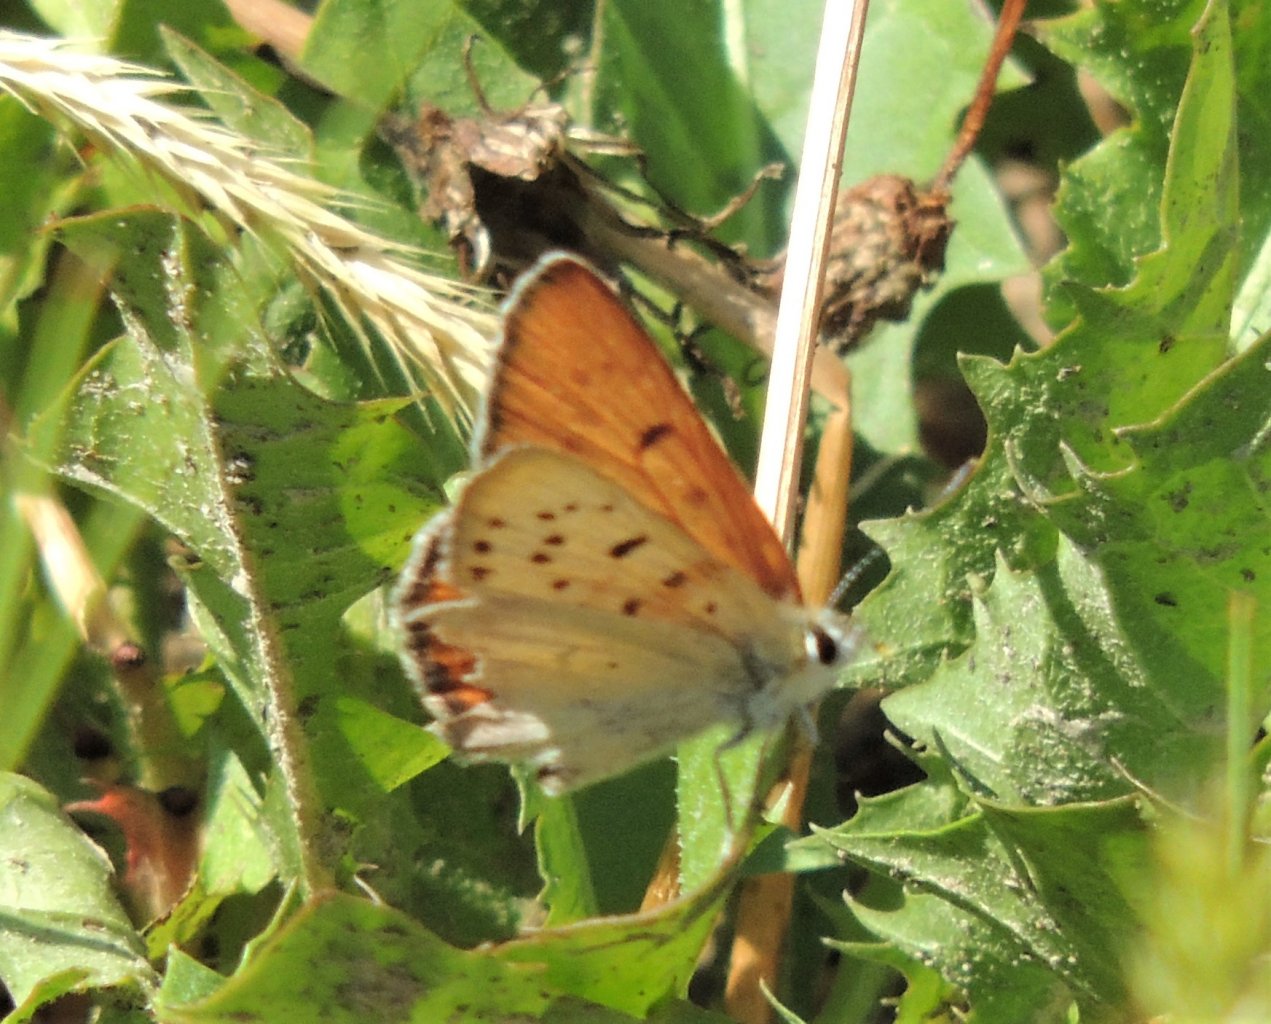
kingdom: Animalia
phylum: Arthropoda
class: Insecta
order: Lepidoptera
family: Sesiidae
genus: Sesia
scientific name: Sesia Lycaena helloides
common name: Purplish Copper
